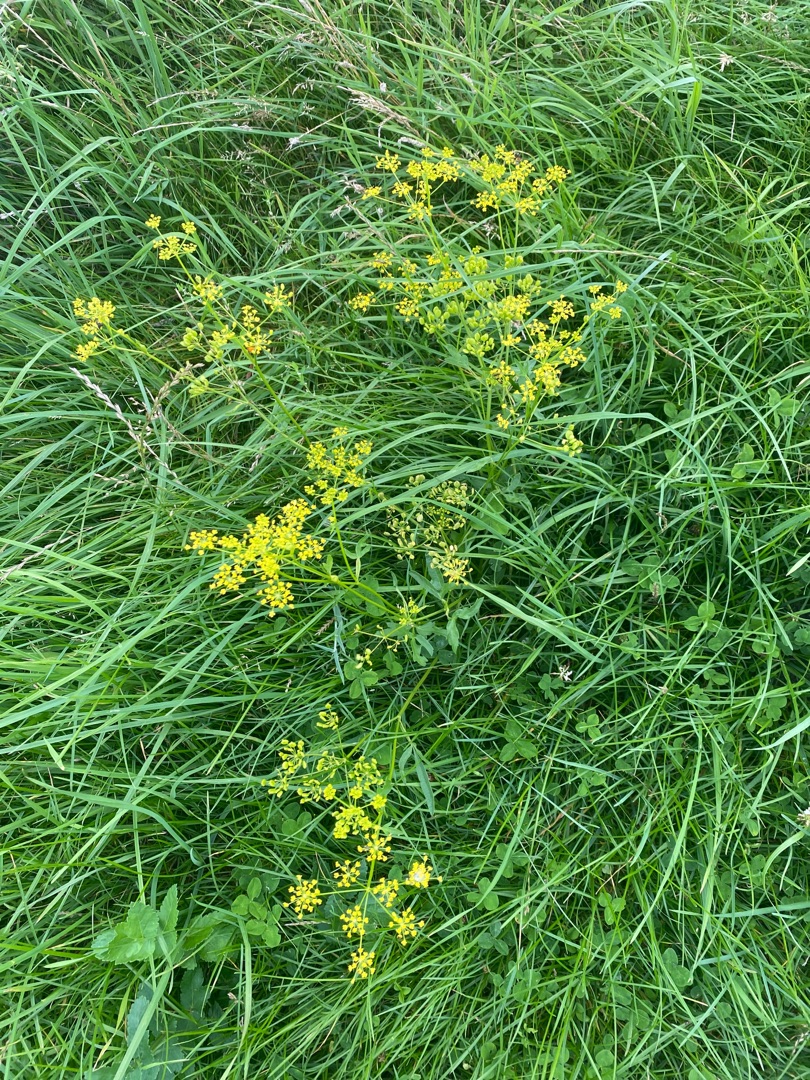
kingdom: Plantae
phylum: Tracheophyta
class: Magnoliopsida
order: Apiales
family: Apiaceae
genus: Pastinaca
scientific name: Pastinaca sativa
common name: Have-pastinak
